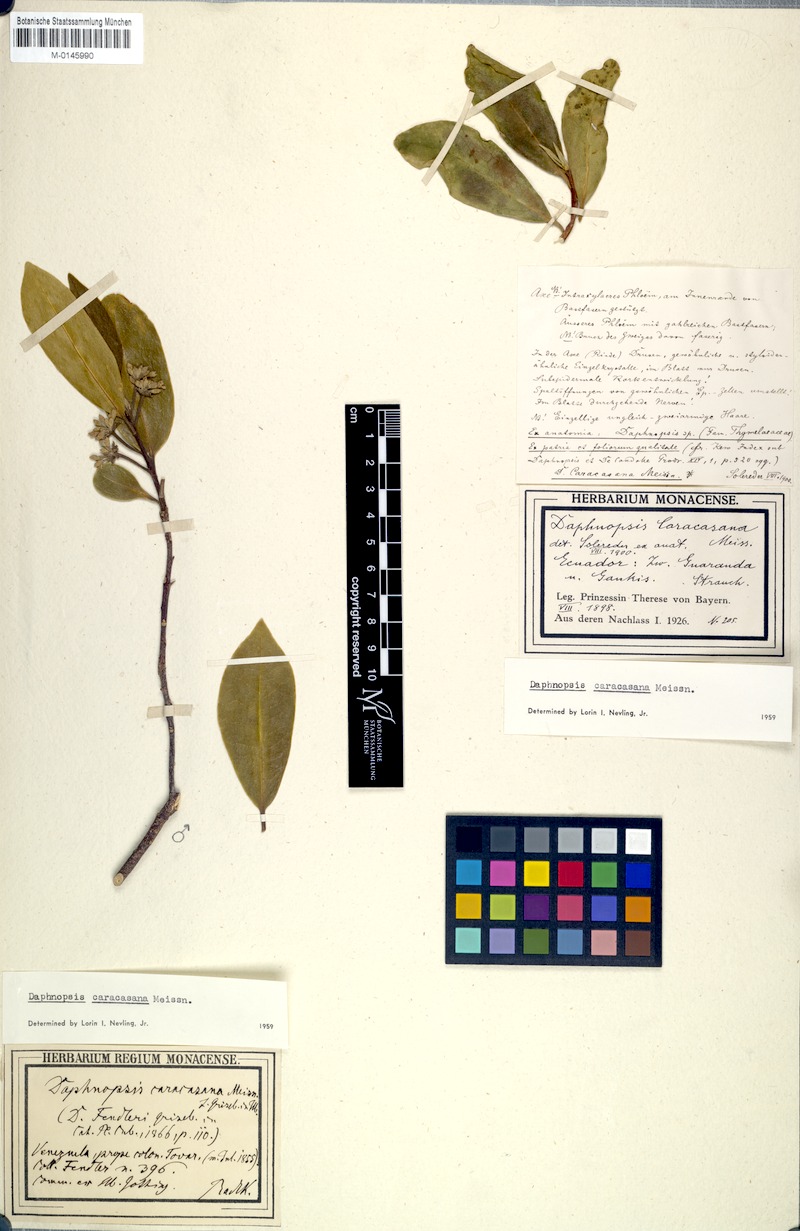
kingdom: Plantae
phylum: Tracheophyta
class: Magnoliopsida
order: Malvales
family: Thymelaeaceae
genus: Daphnopsis
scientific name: Daphnopsis caracasana
